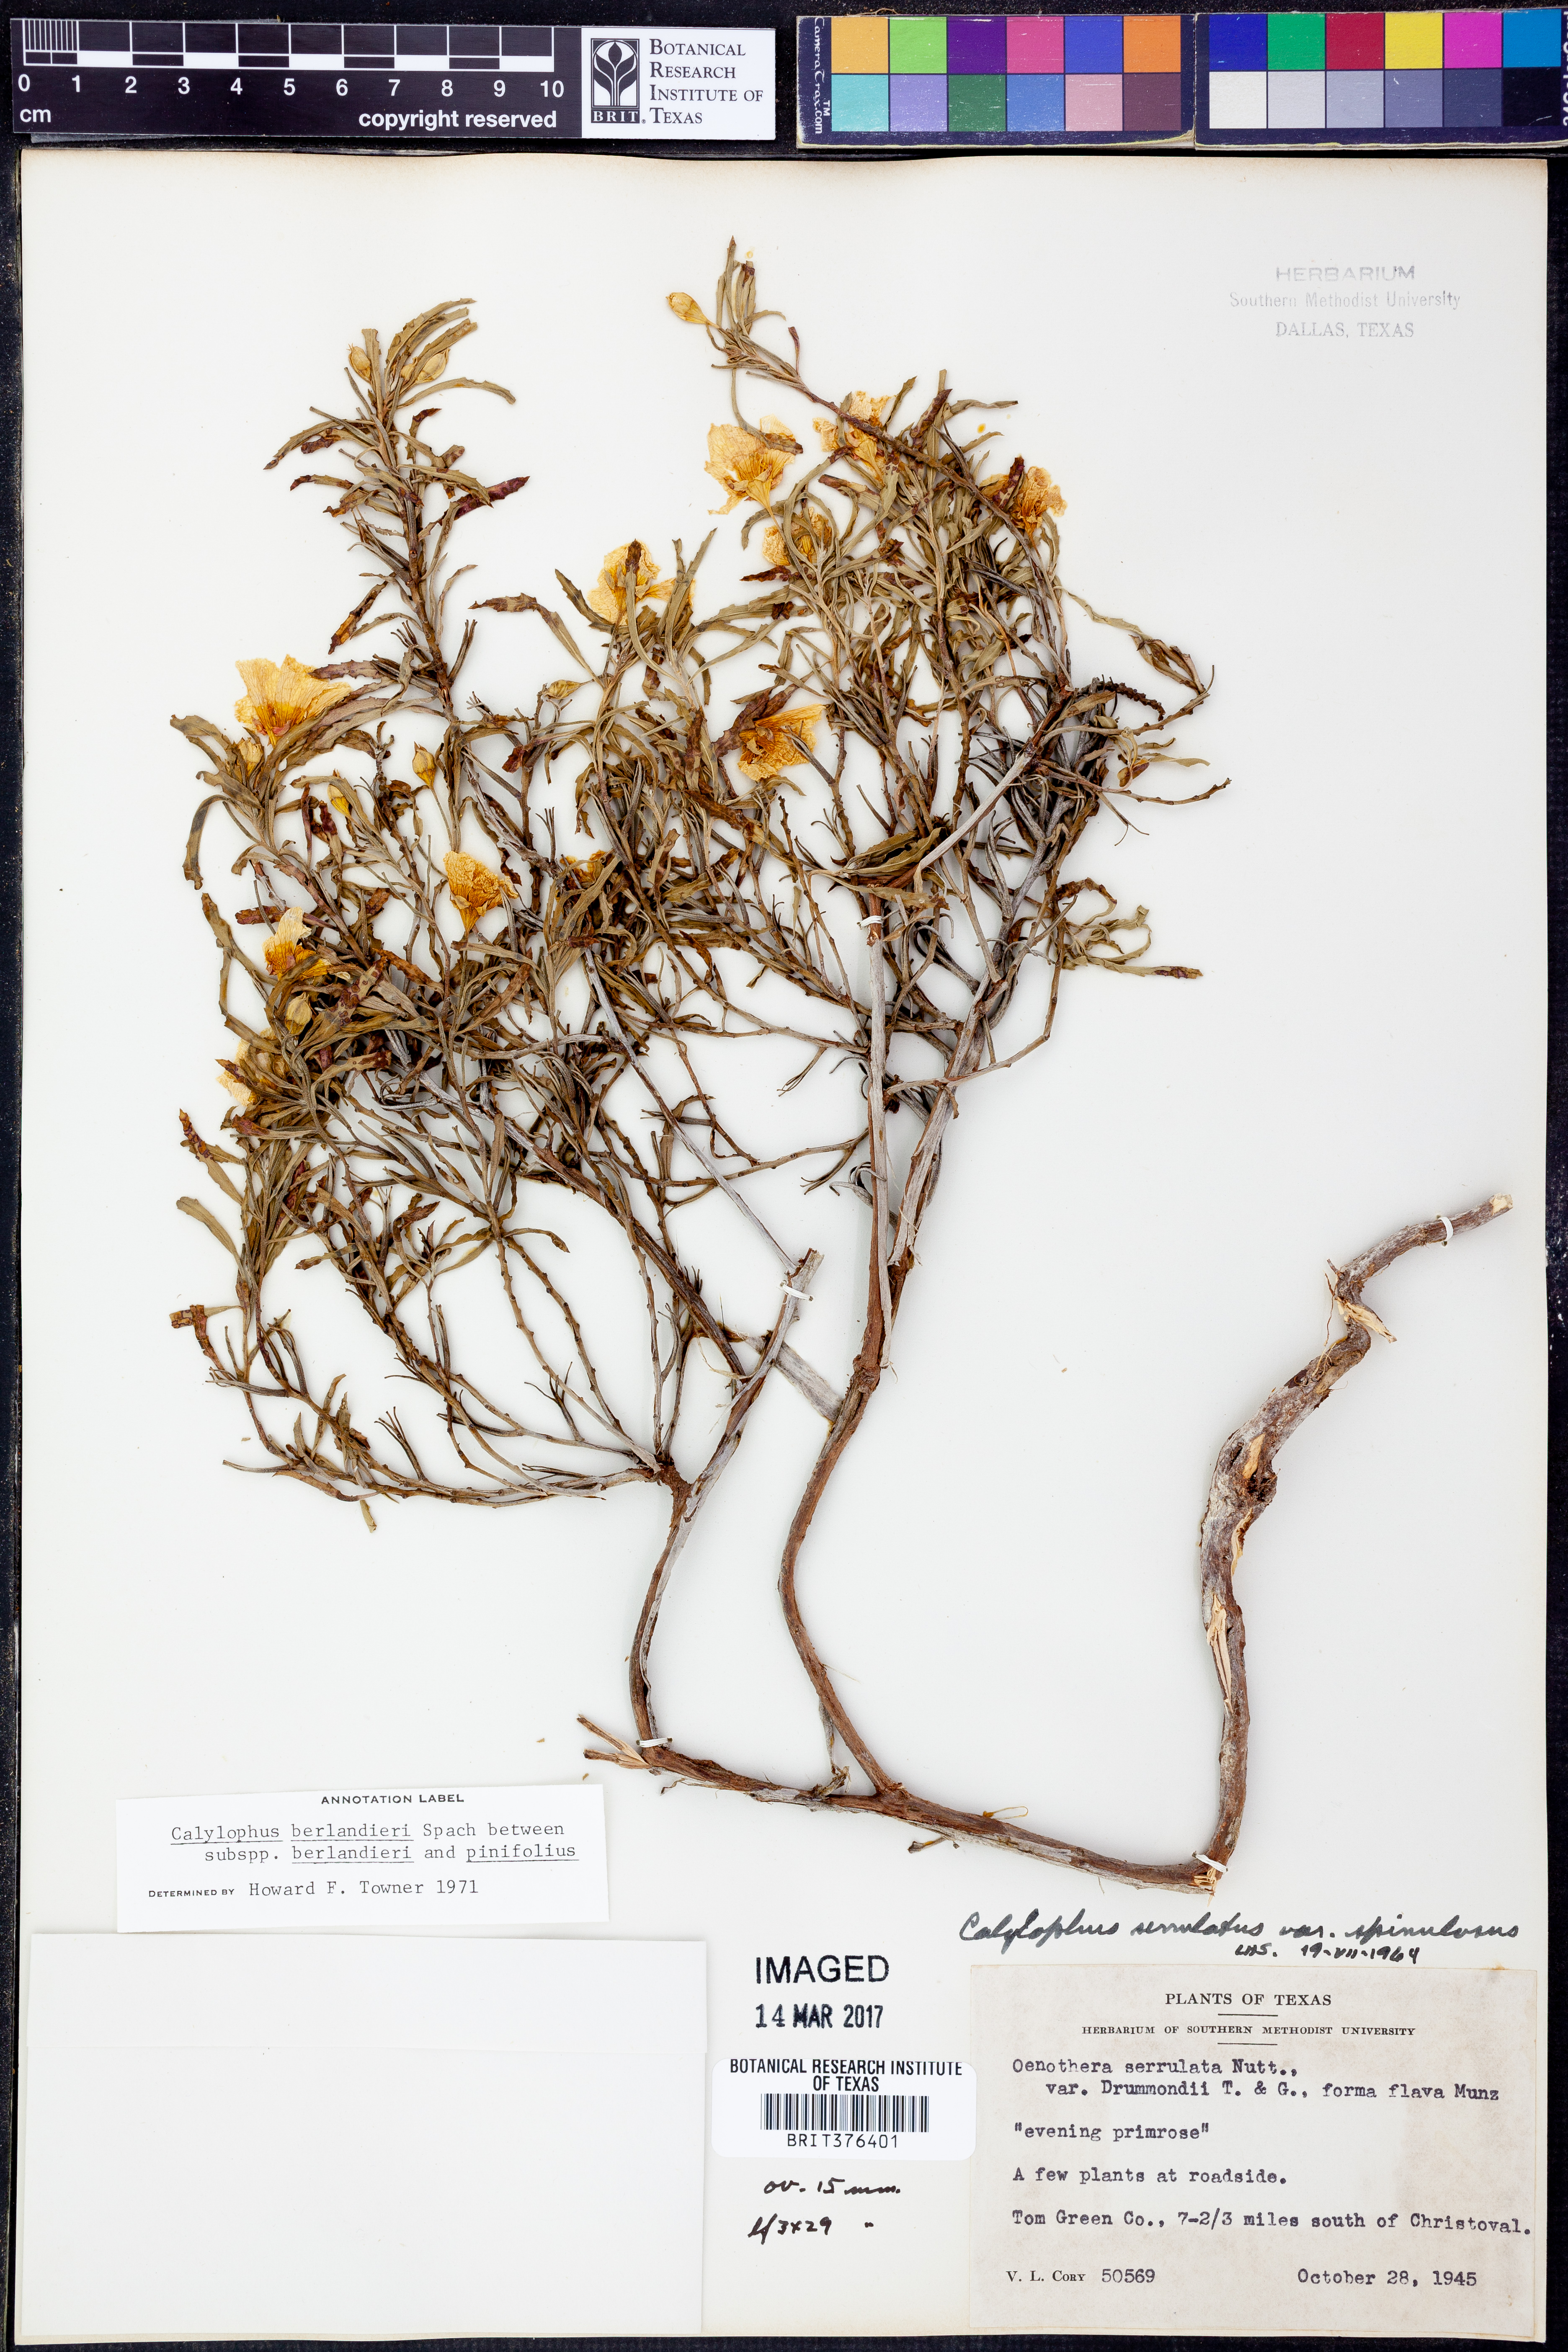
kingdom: Plantae
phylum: Tracheophyta
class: Magnoliopsida
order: Myrtales
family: Onagraceae
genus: Oenothera
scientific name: Oenothera capillifolia
